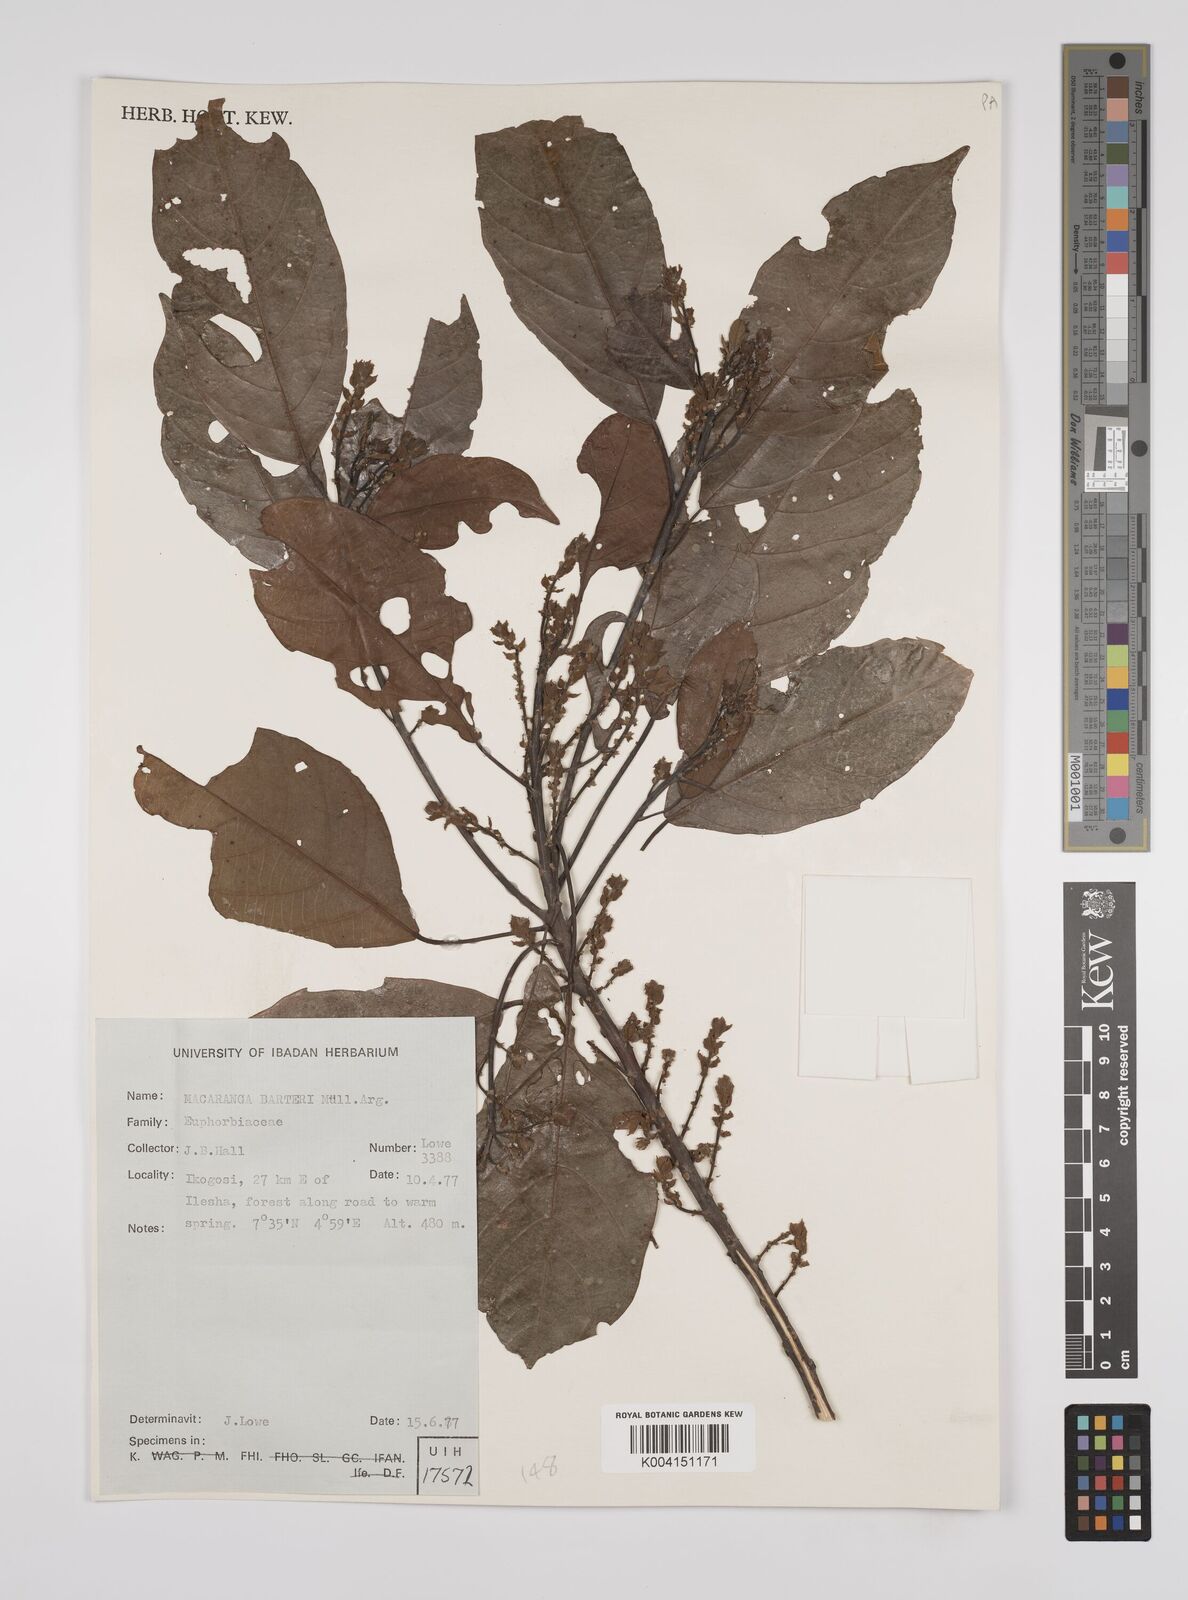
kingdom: Plantae
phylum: Tracheophyta
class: Magnoliopsida
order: Malpighiales
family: Euphorbiaceae
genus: Macaranga
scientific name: Macaranga barteri
